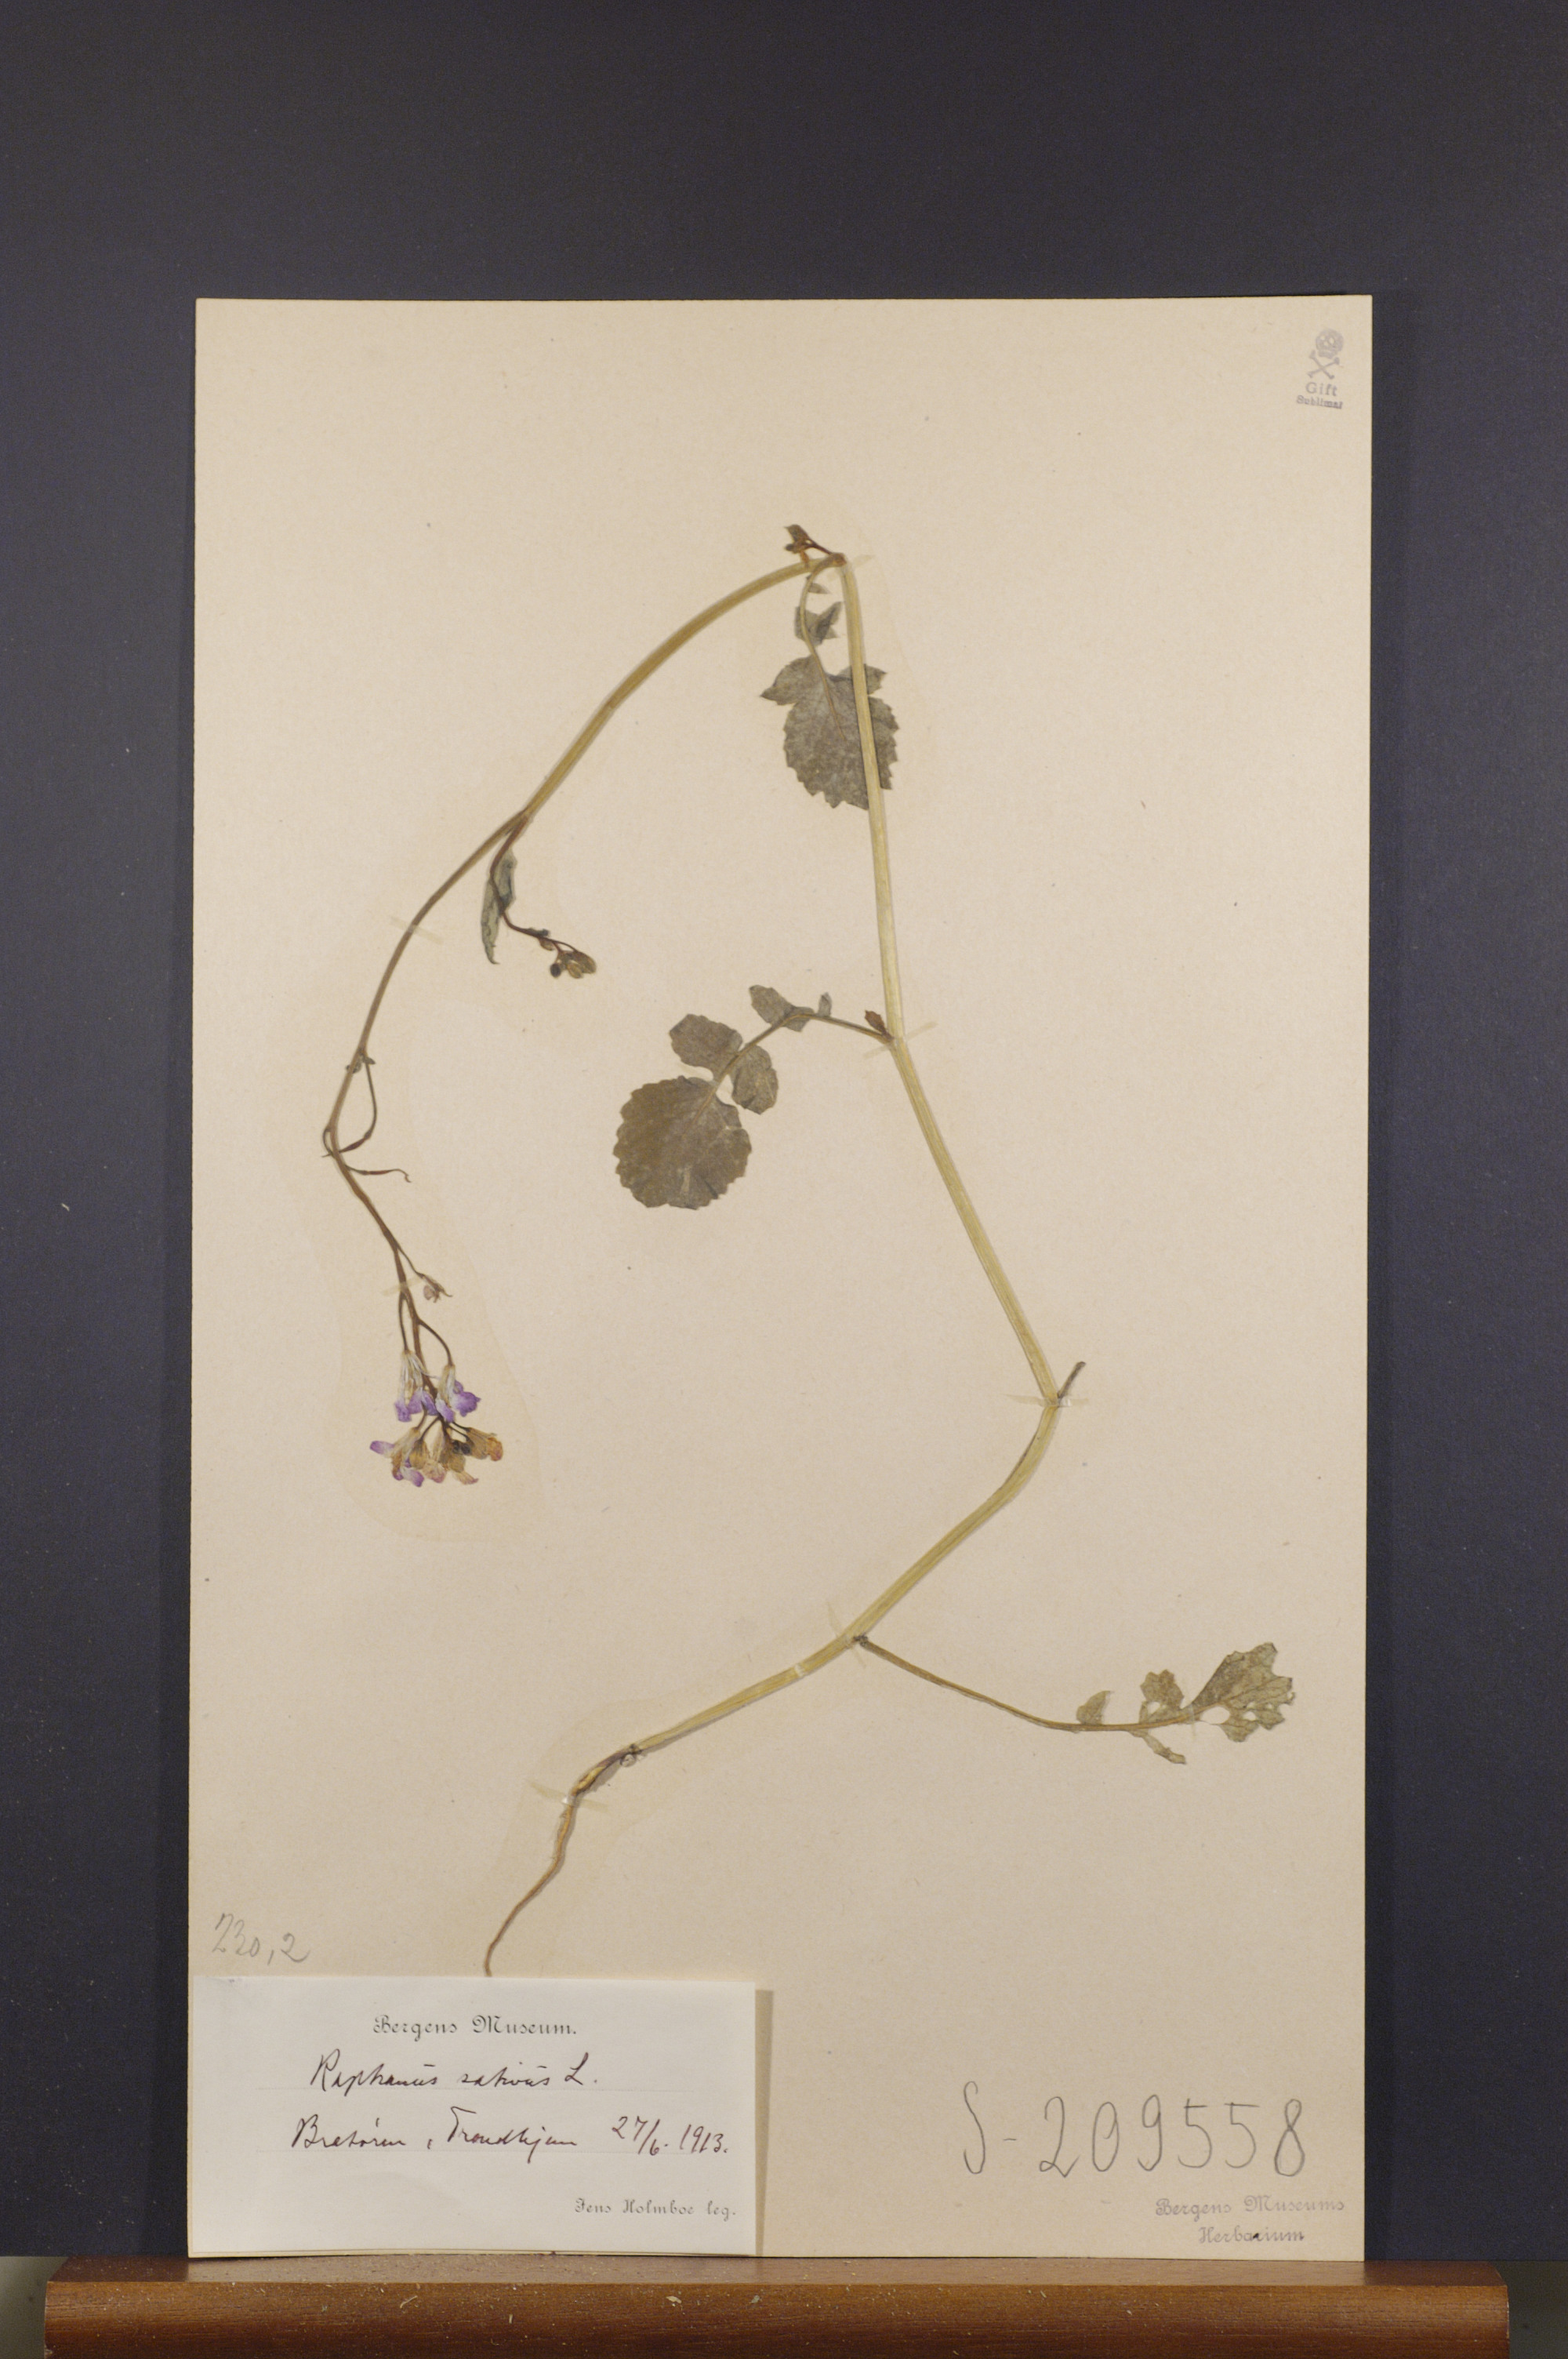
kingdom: Plantae
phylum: Tracheophyta
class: Magnoliopsida
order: Brassicales
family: Brassicaceae
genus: Raphanus
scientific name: Raphanus sativus
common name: Cultivated radish
